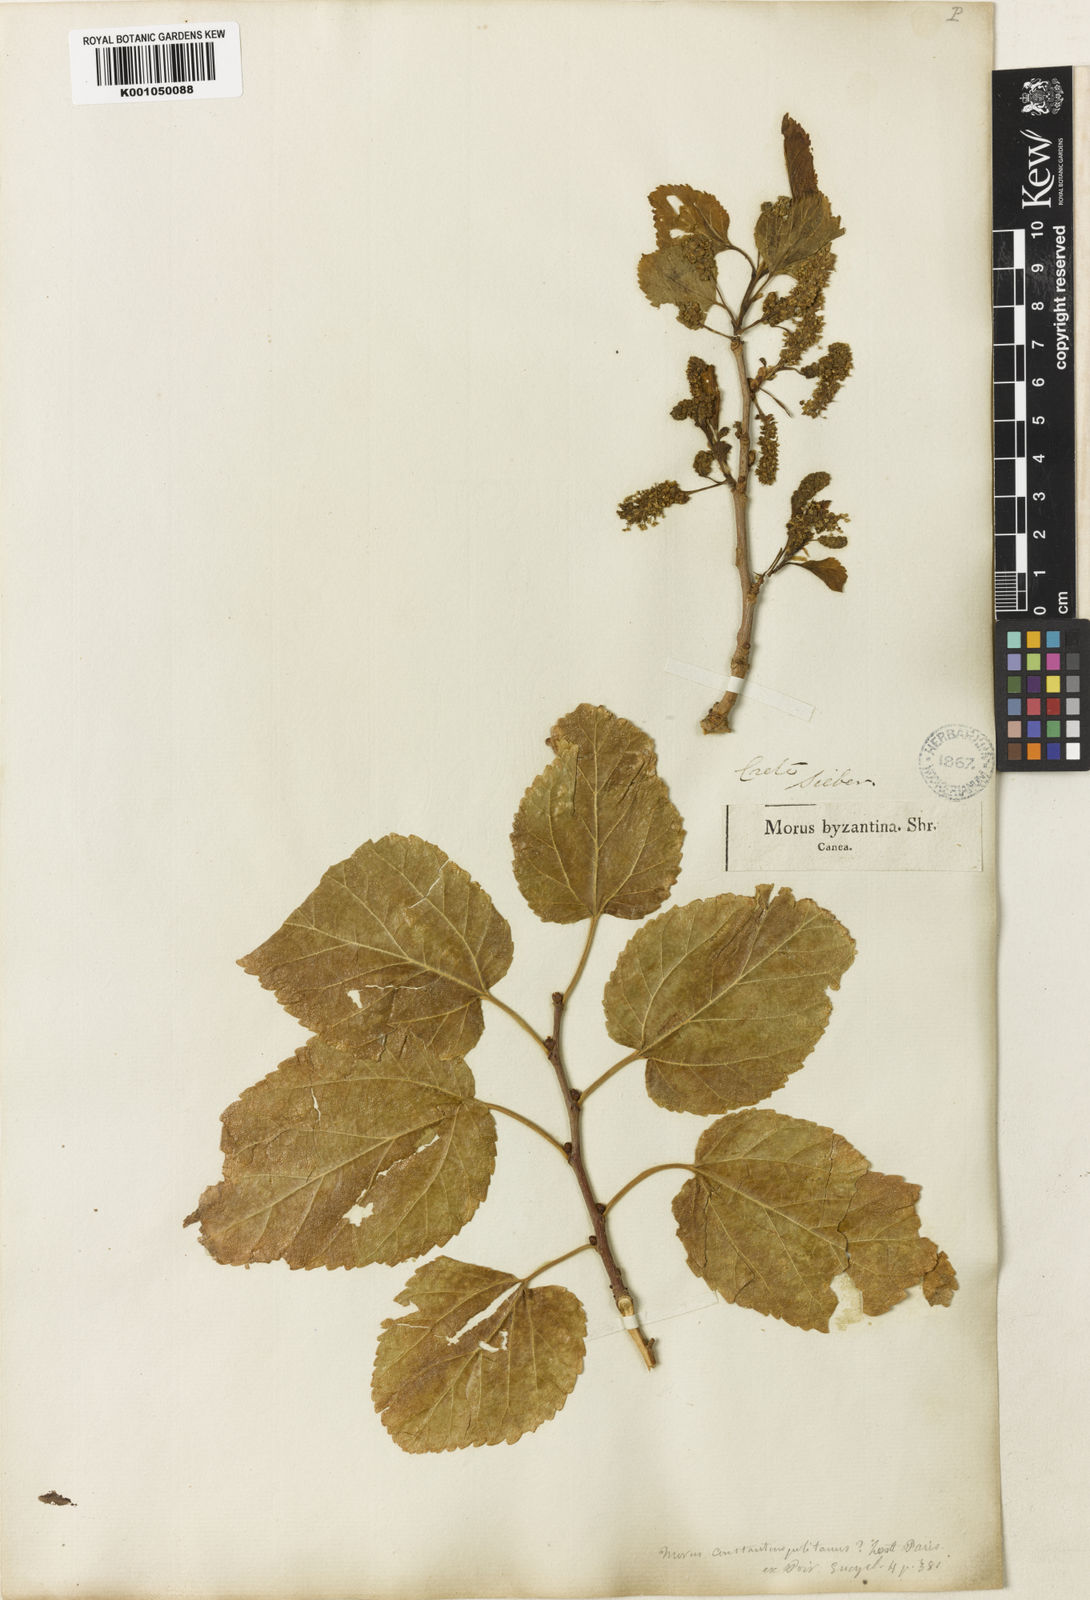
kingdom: Plantae
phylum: Tracheophyta
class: Magnoliopsida
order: Rosales
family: Moraceae
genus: Morus
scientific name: Morus alba
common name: White mulberry
